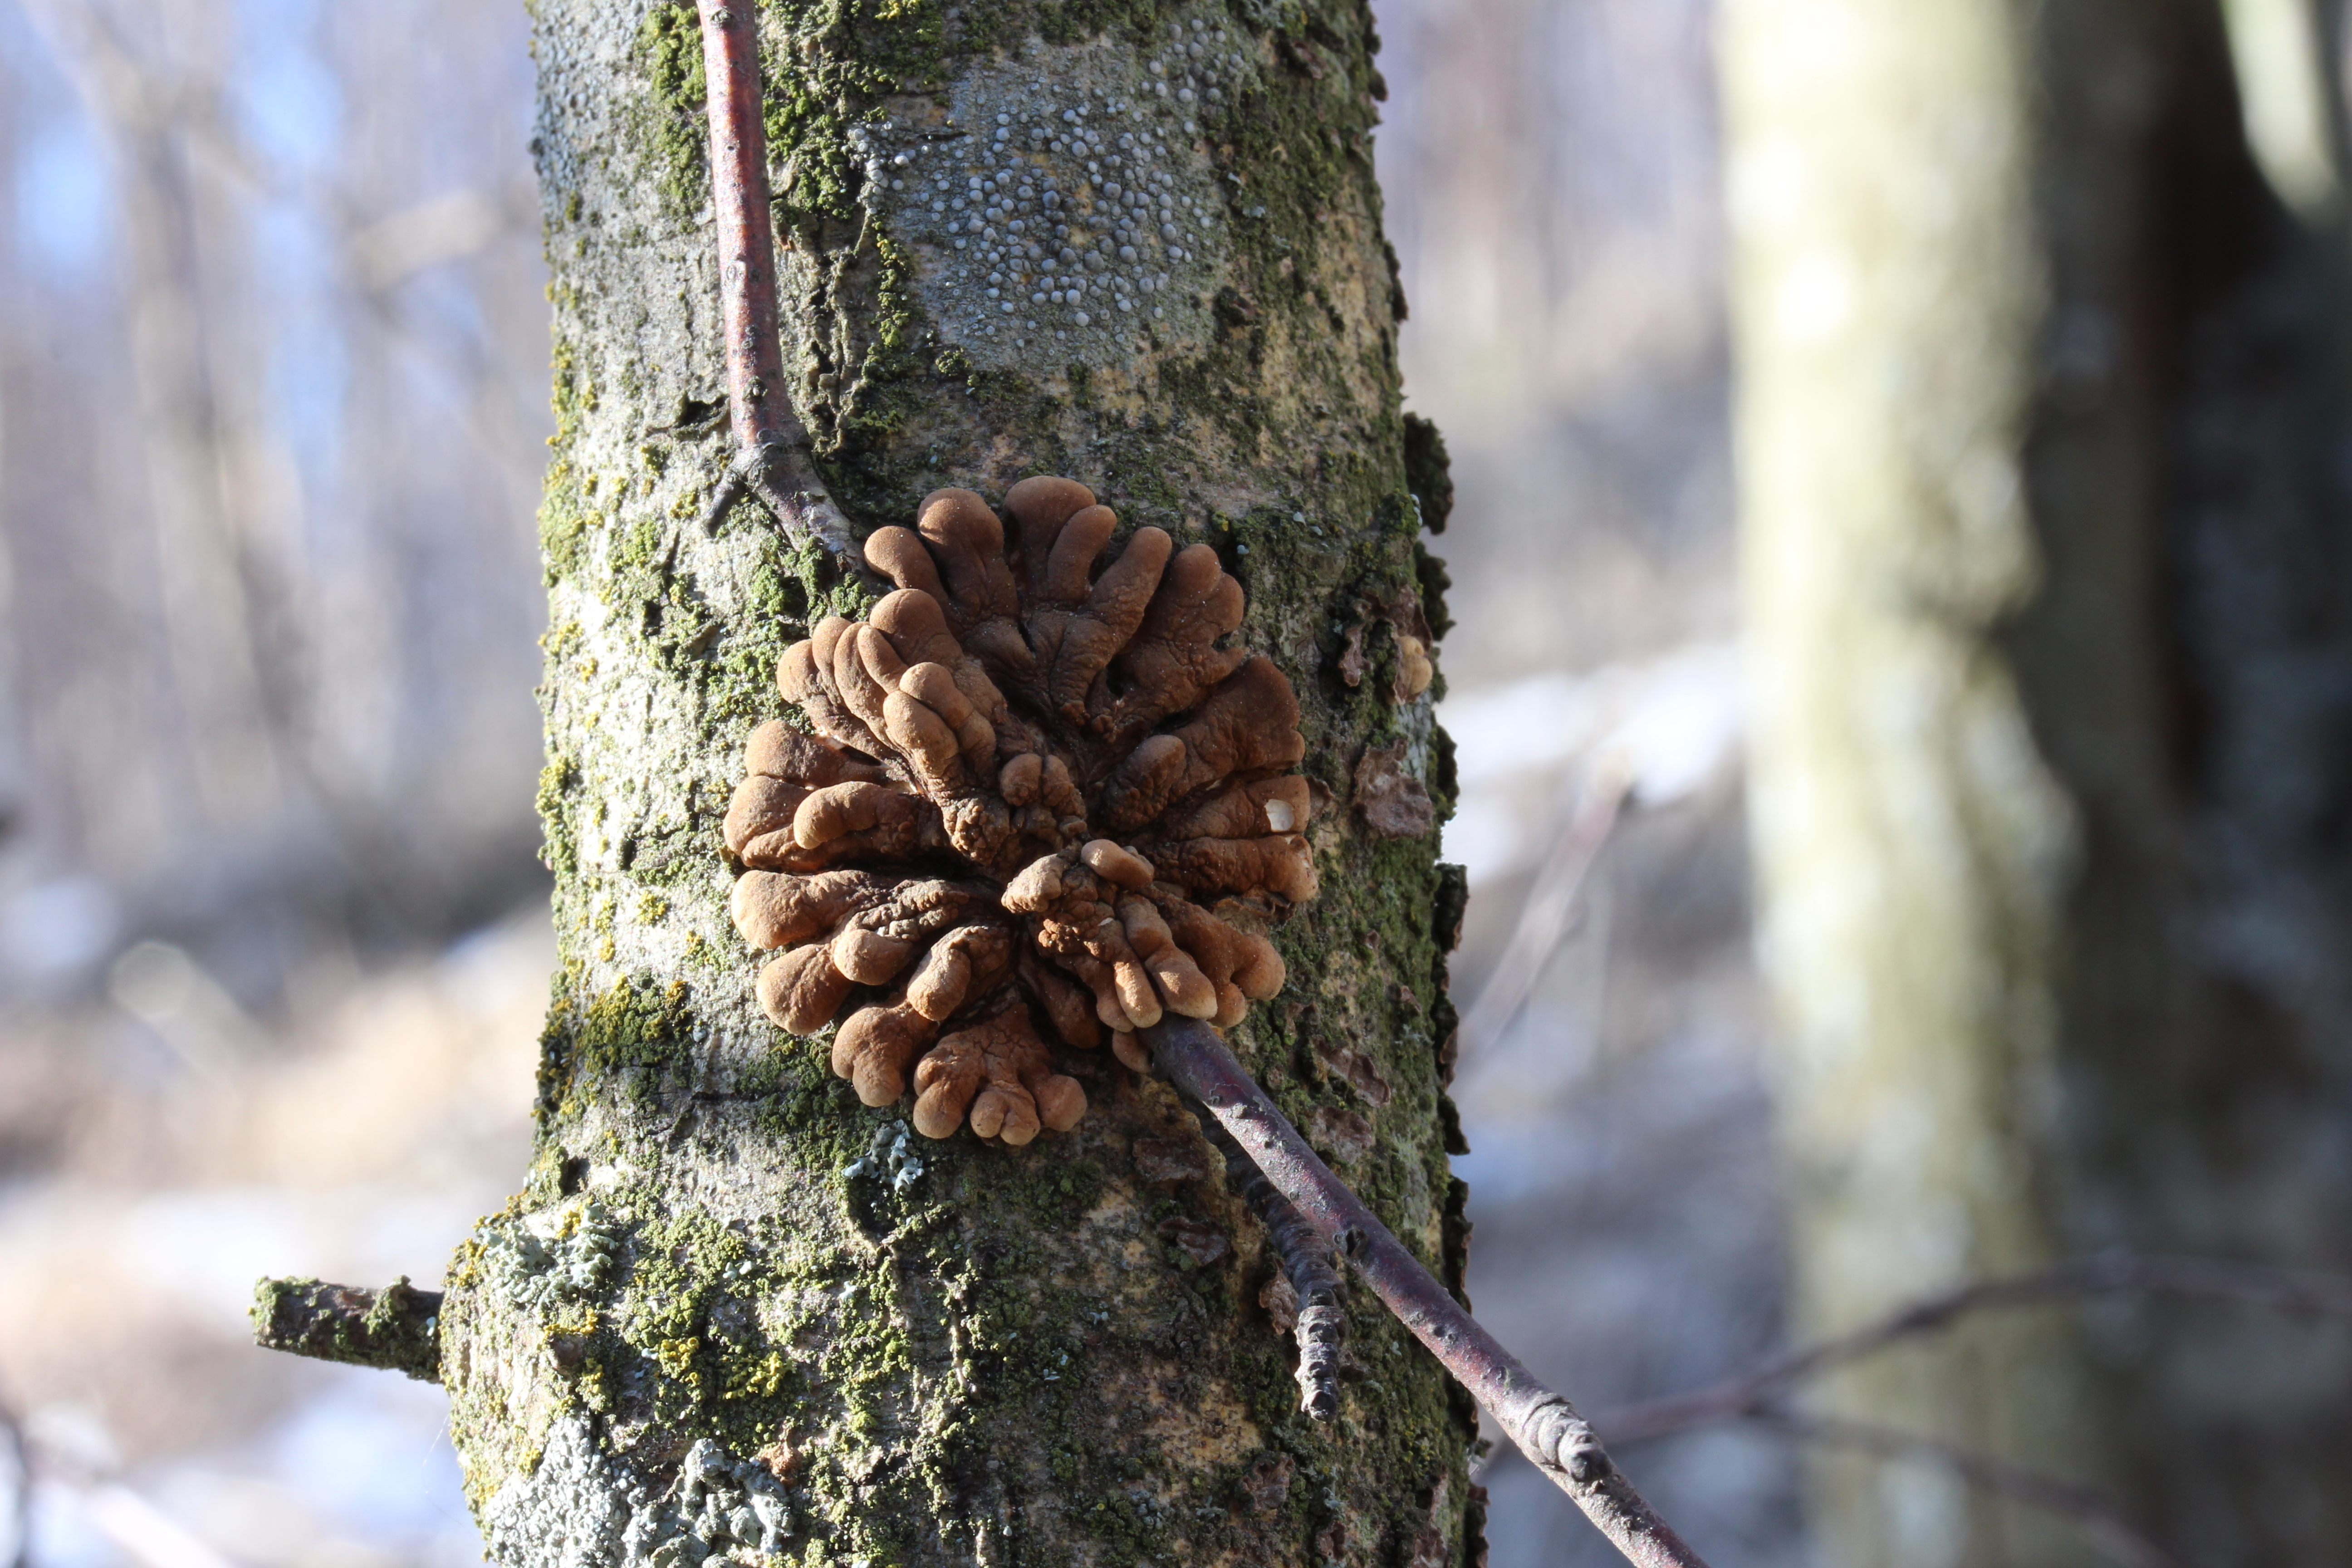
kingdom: Fungi
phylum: Ascomycota
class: Sordariomycetes
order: Hypocreales
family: Hypocreaceae
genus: Hypocreopsis
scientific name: Hypocreopsis lichenoides
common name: Willow gloves
